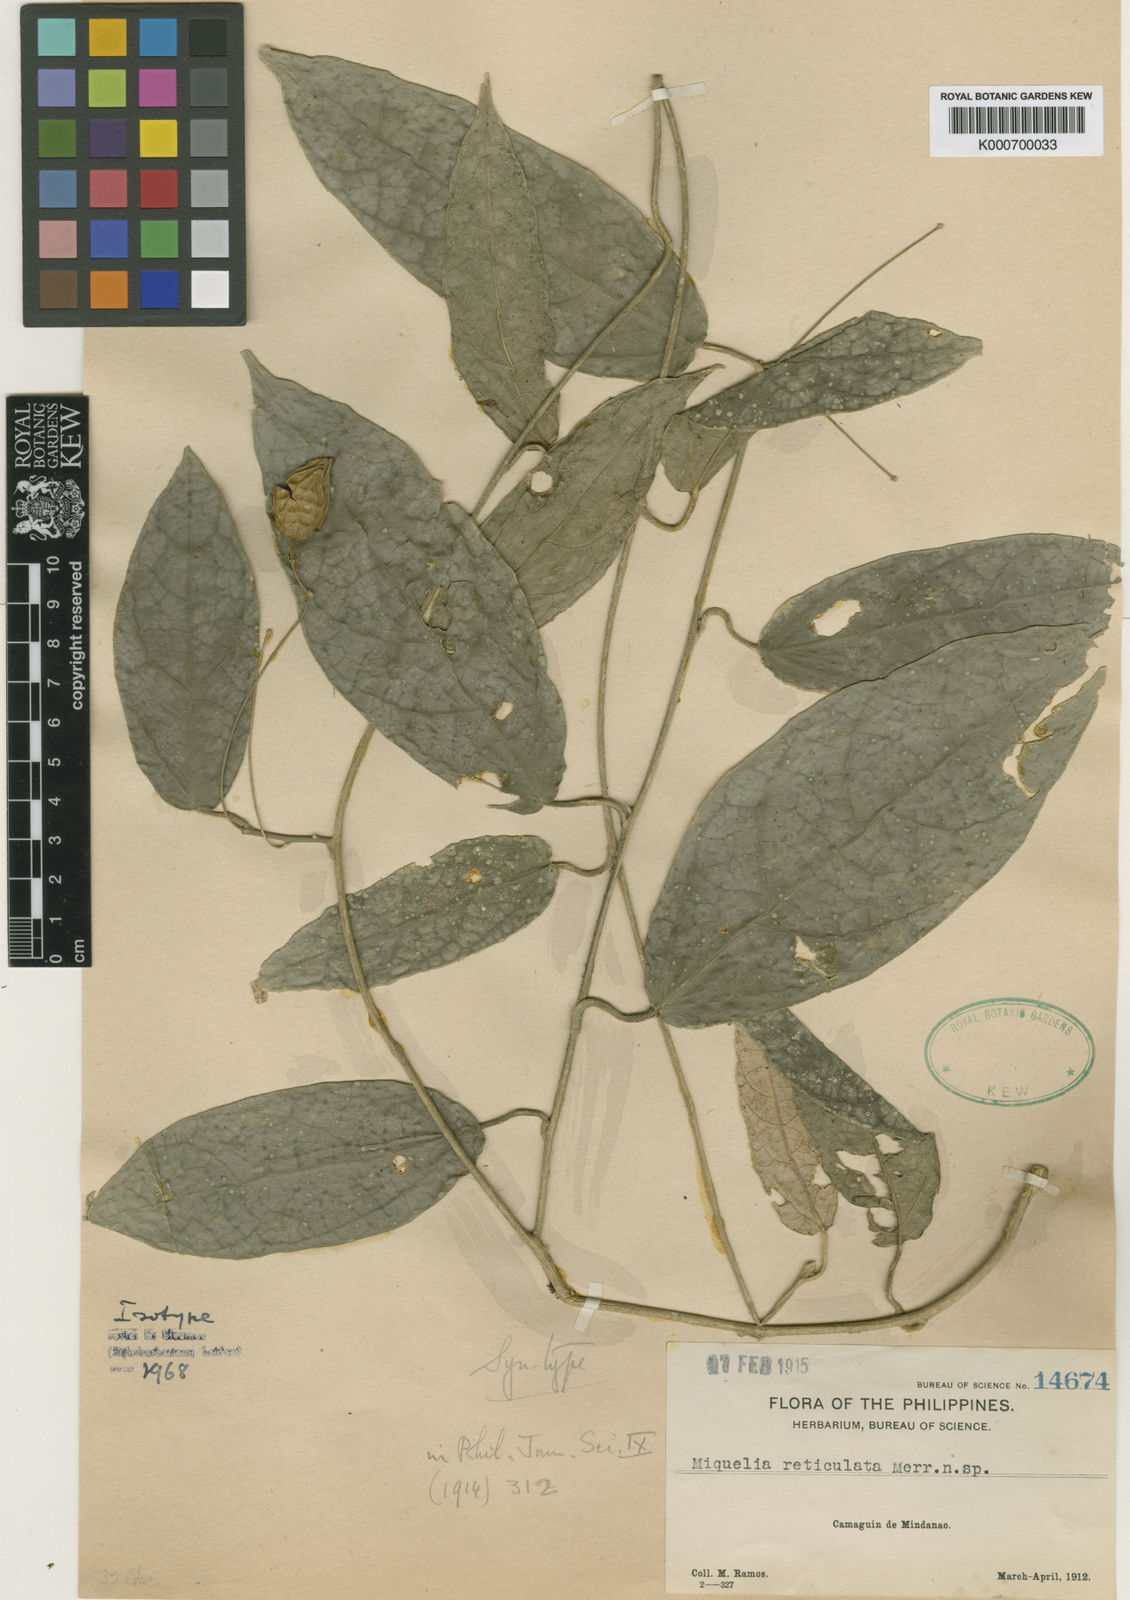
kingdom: Plantae
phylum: Tracheophyta
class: Magnoliopsida
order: Icacinales
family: Icacinaceae
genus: Miquelia
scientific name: Miquelia reticulata
